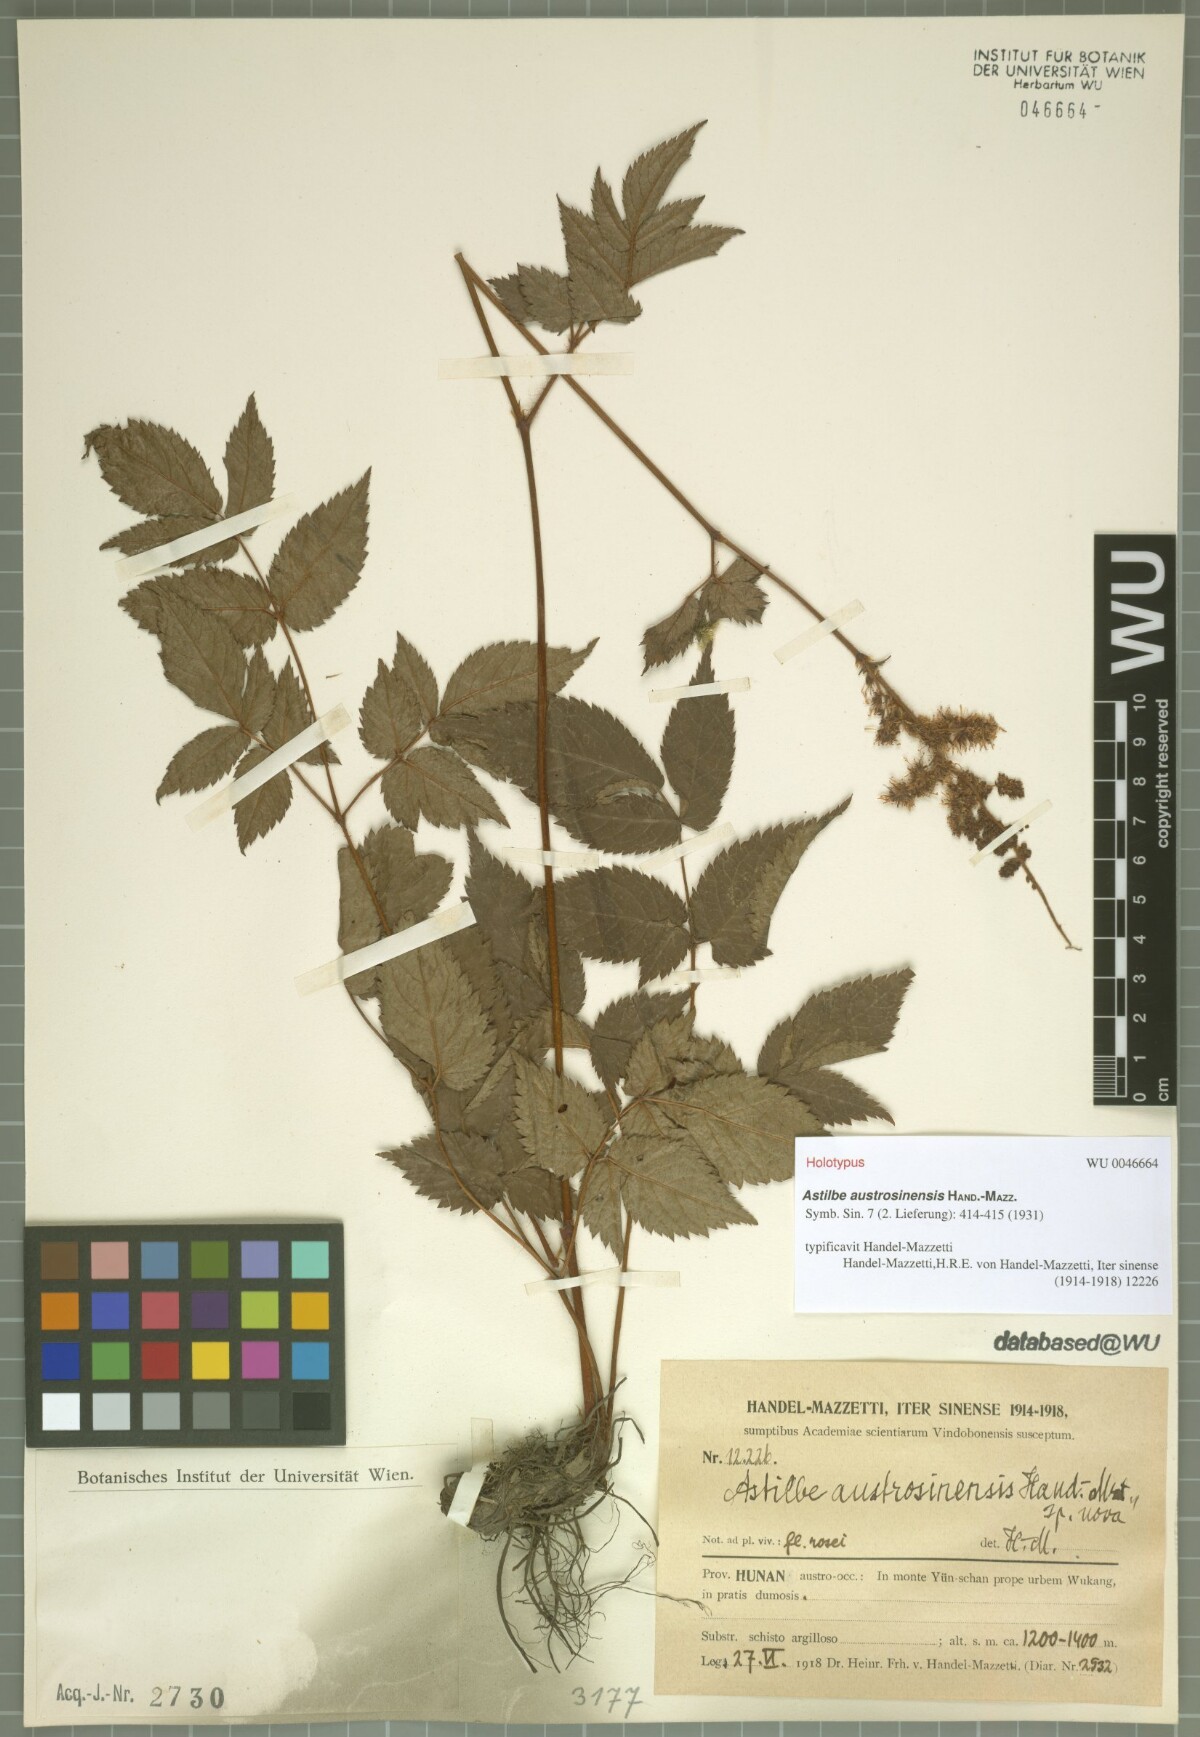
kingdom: Plantae
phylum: Tracheophyta
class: Magnoliopsida
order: Saxifragales
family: Saxifragaceae
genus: Astilbe
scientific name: Astilbe grandis
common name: Korean astilbe
